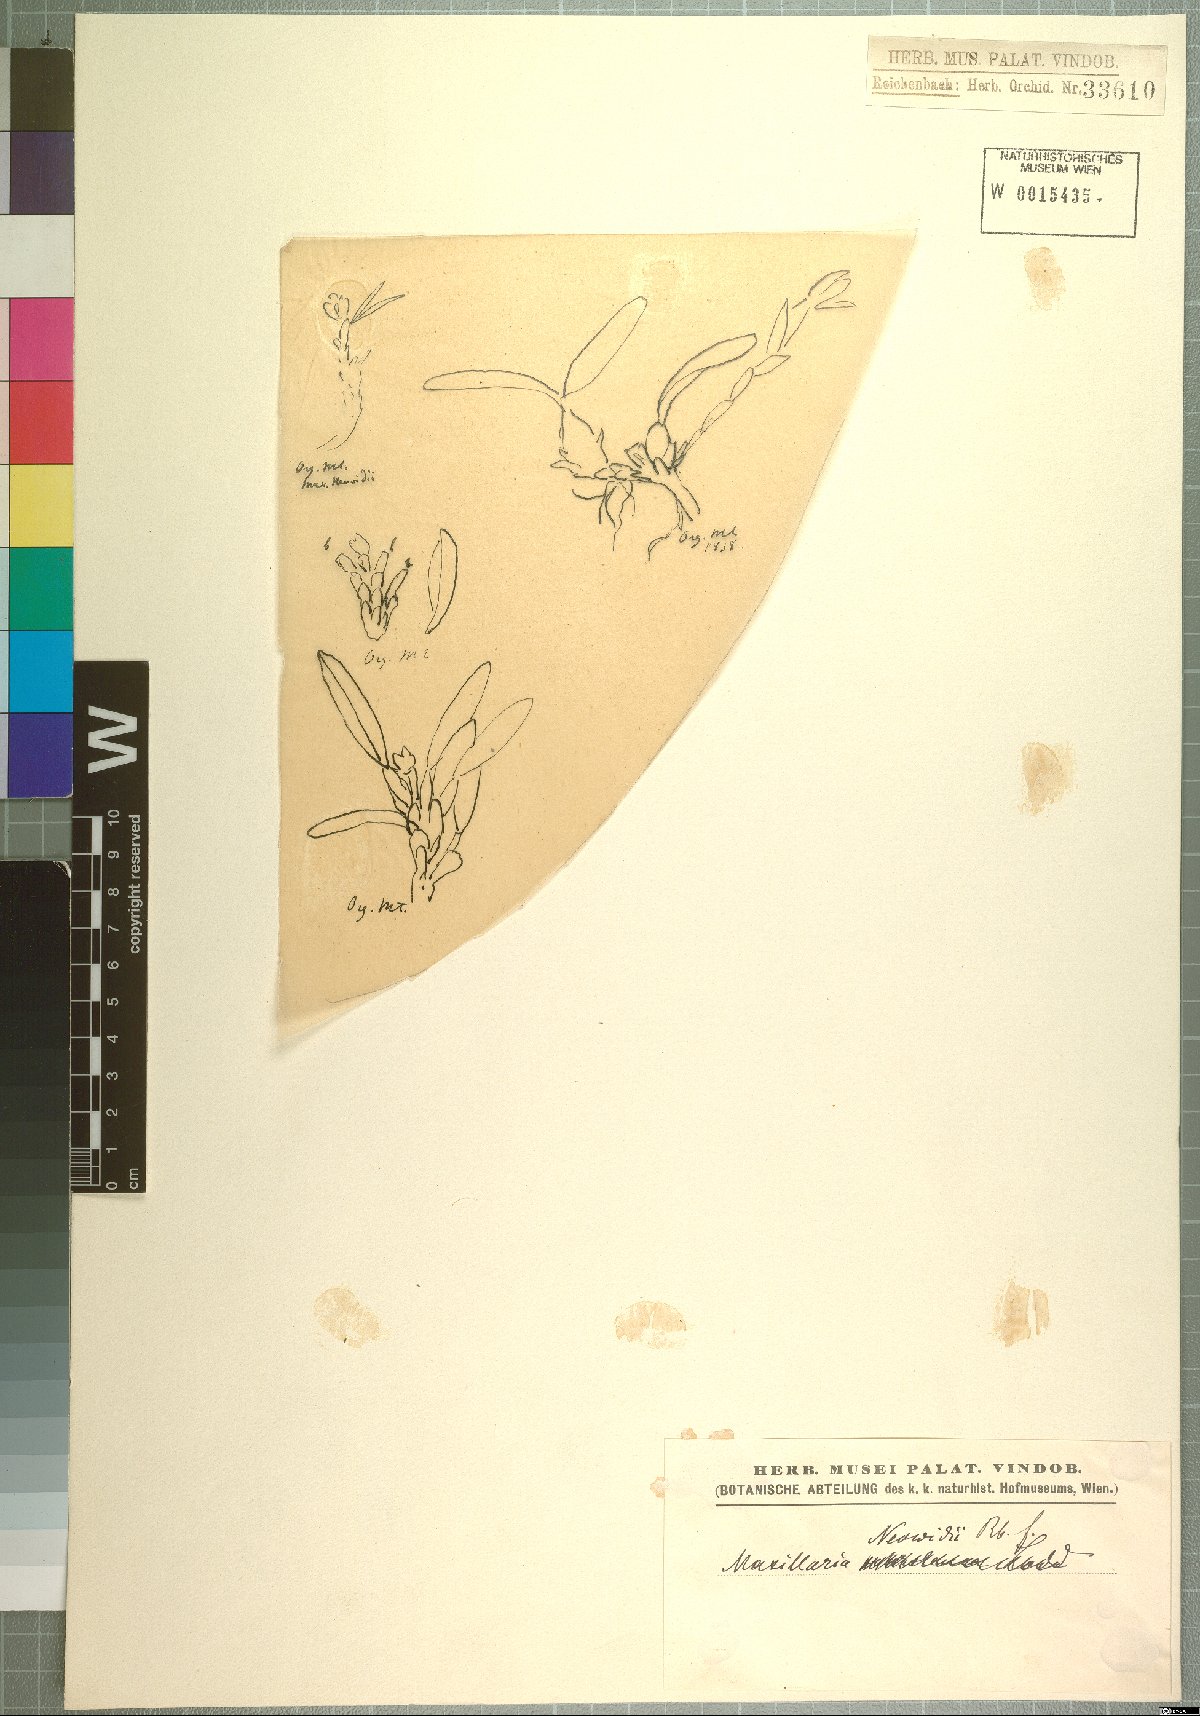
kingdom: Plantae
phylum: Tracheophyta
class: Liliopsida
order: Asparagales
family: Orchidaceae
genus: Maxillaria
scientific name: Maxillaria neowiedii
